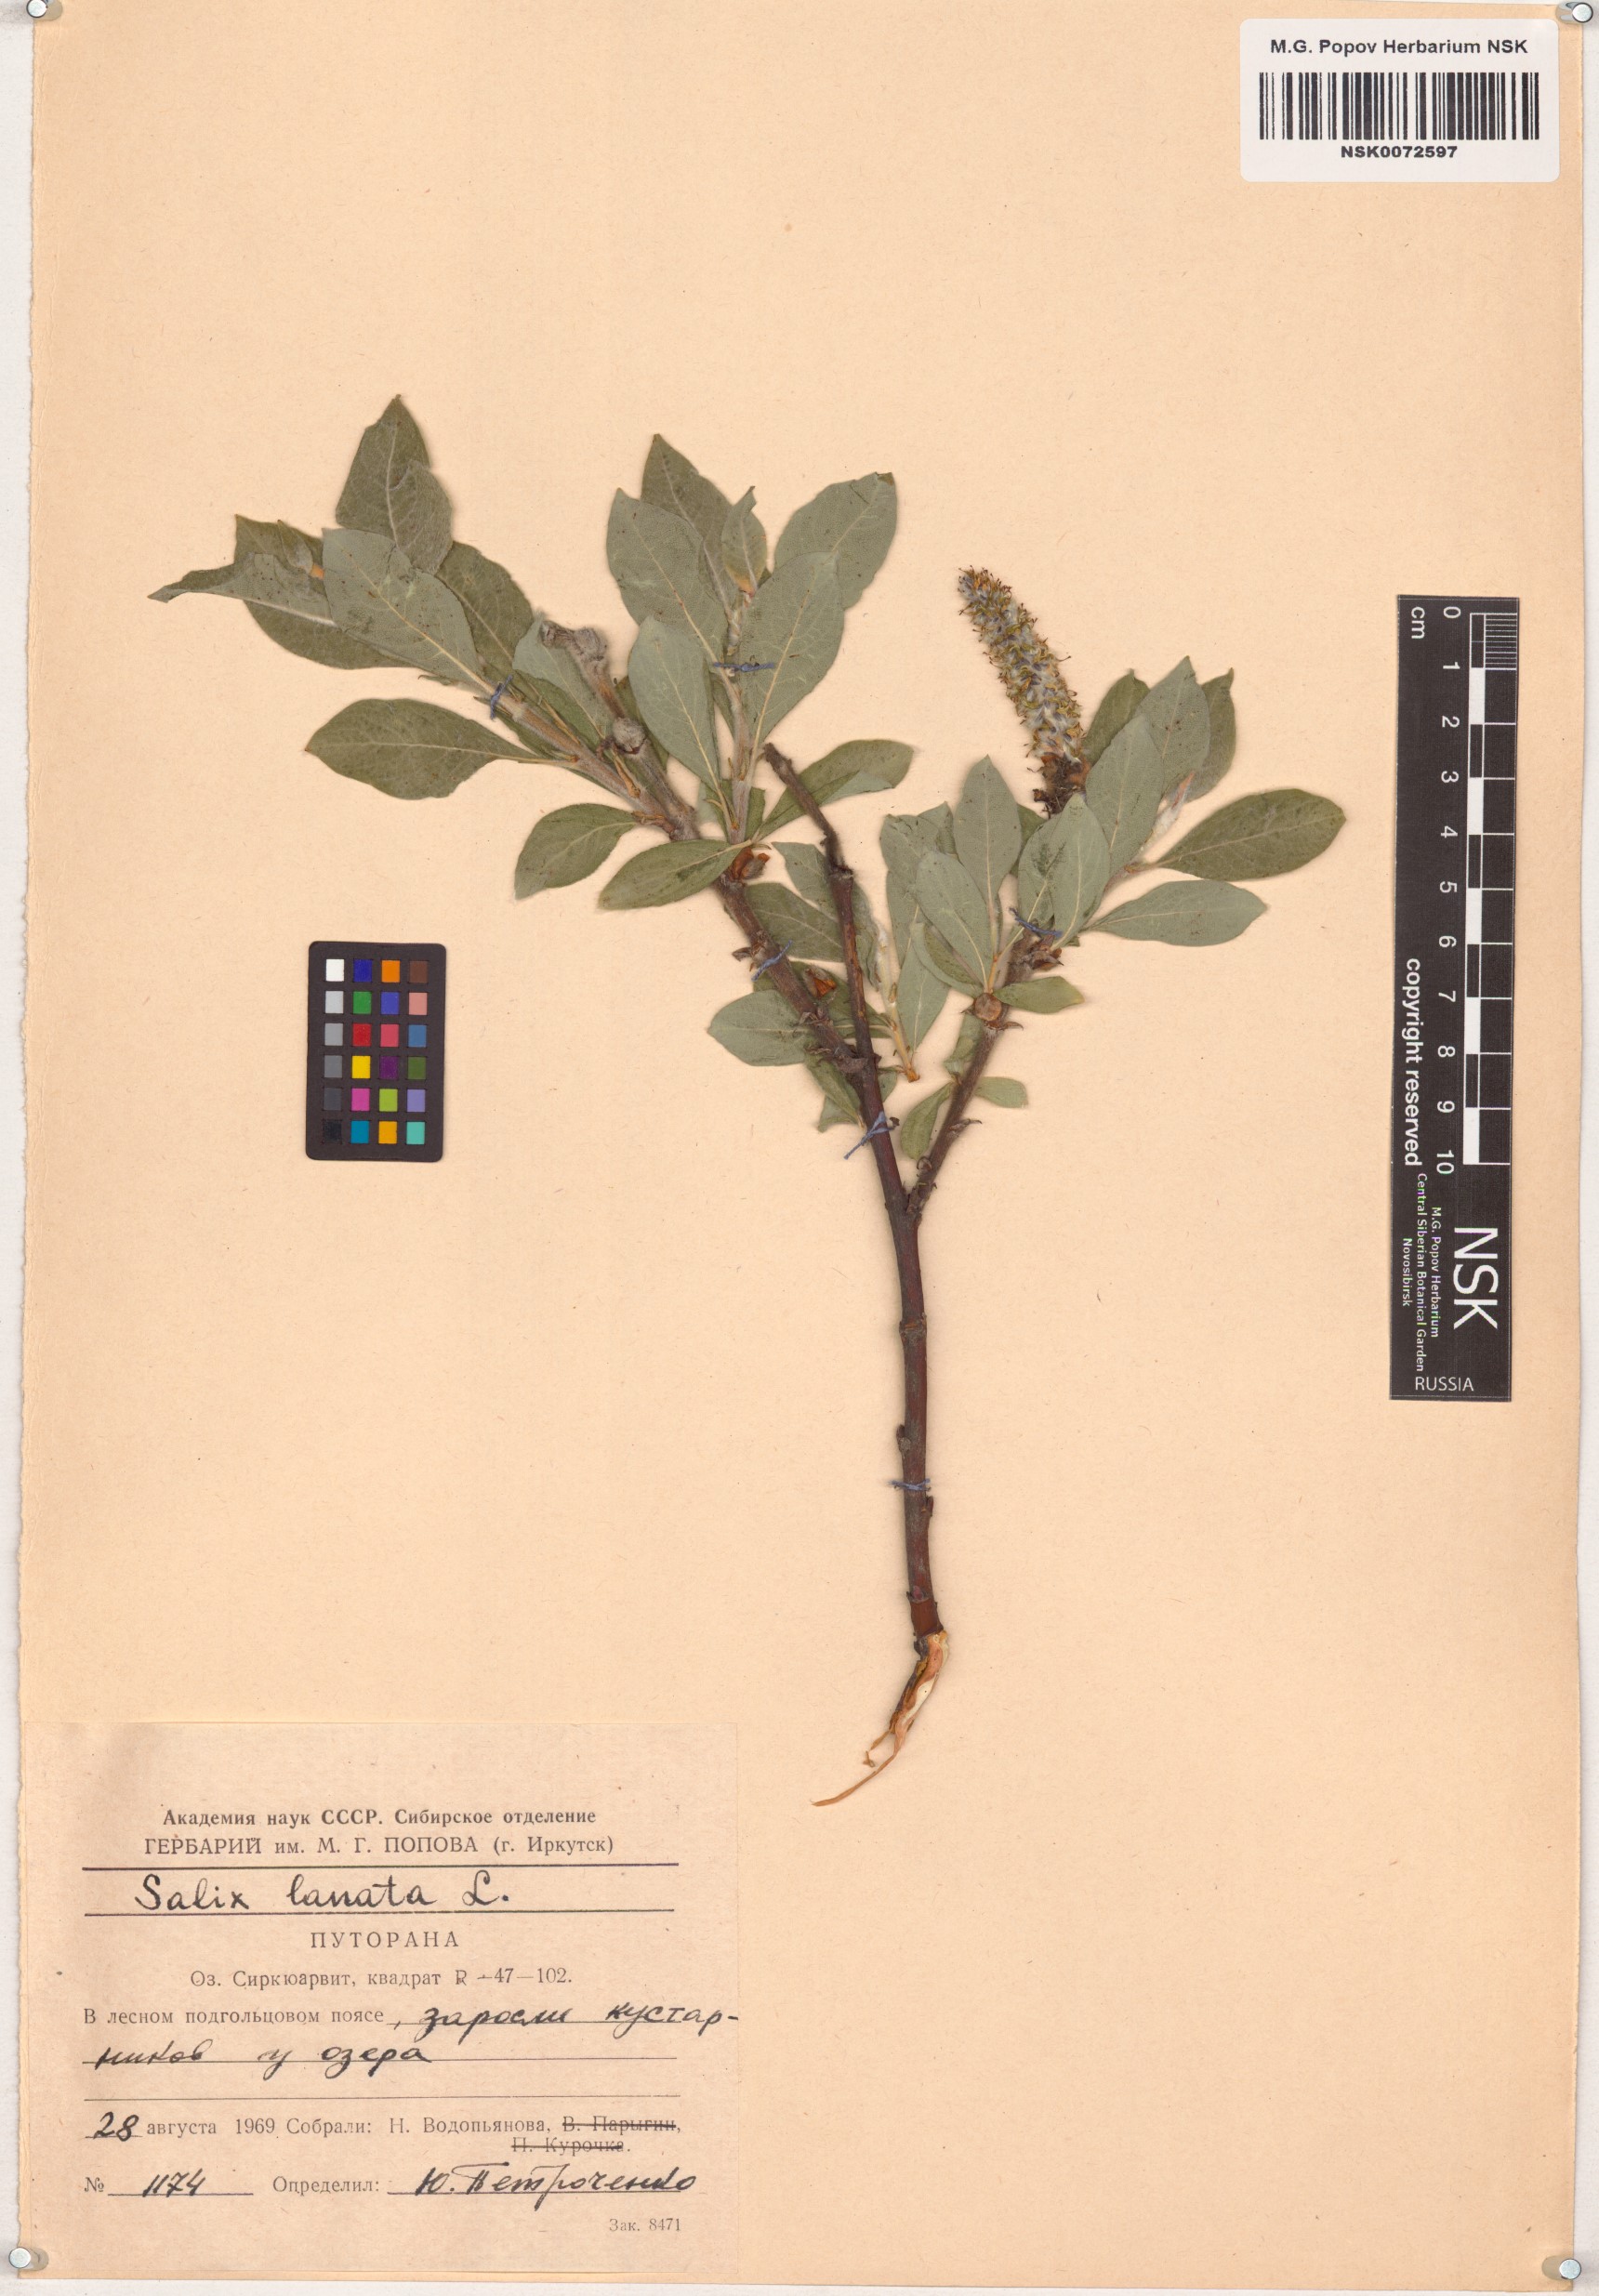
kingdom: Plantae
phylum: Tracheophyta
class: Magnoliopsida
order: Malpighiales
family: Salicaceae
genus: Salix
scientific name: Salix lanata
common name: Woolly willow
